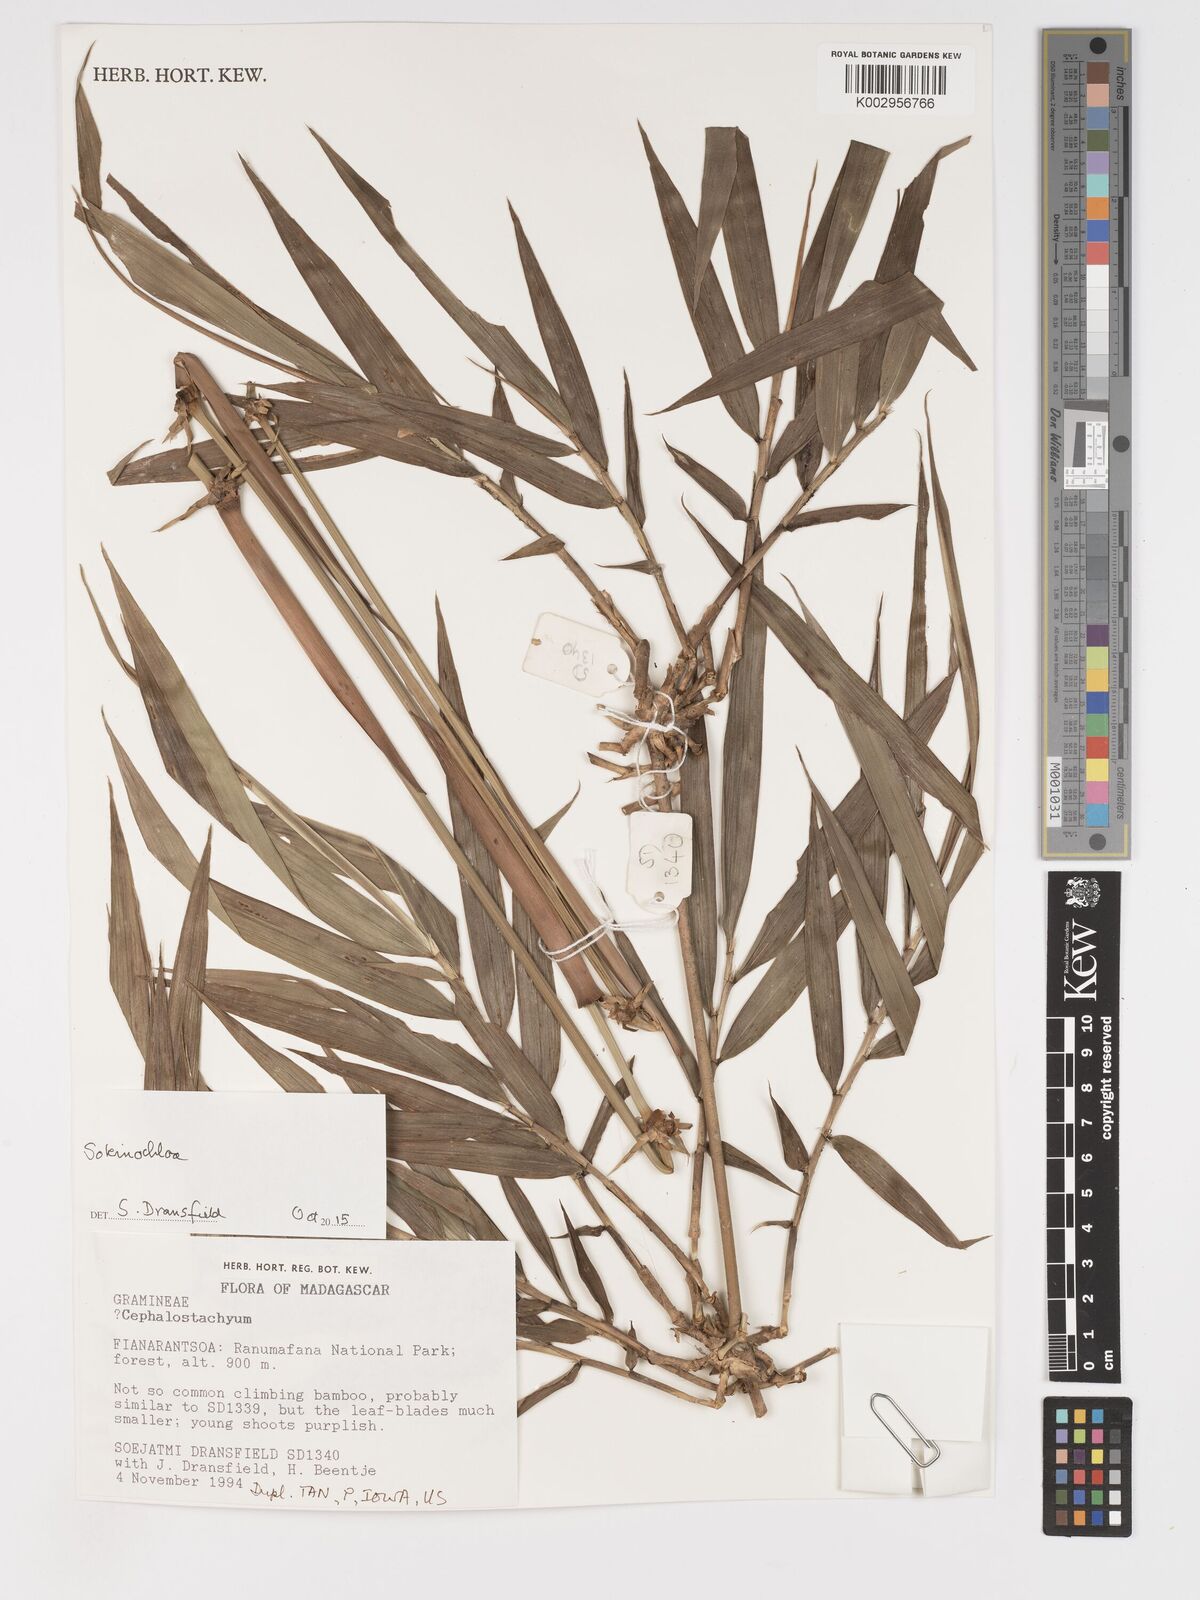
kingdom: Plantae
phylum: Tracheophyta
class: Liliopsida
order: Poales
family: Poaceae
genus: Sokinochloa
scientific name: Sokinochloa
